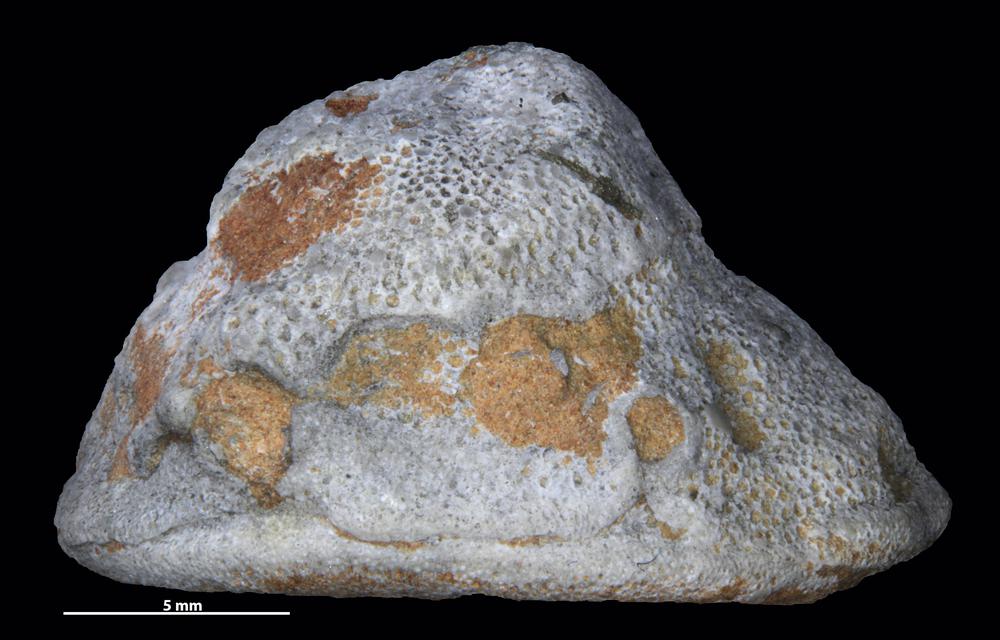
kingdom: Animalia
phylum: Bryozoa
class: Stenolaemata
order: Trepostomatida
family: Diplotrypidae
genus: Diplotrypa
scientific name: Diplotrypa
